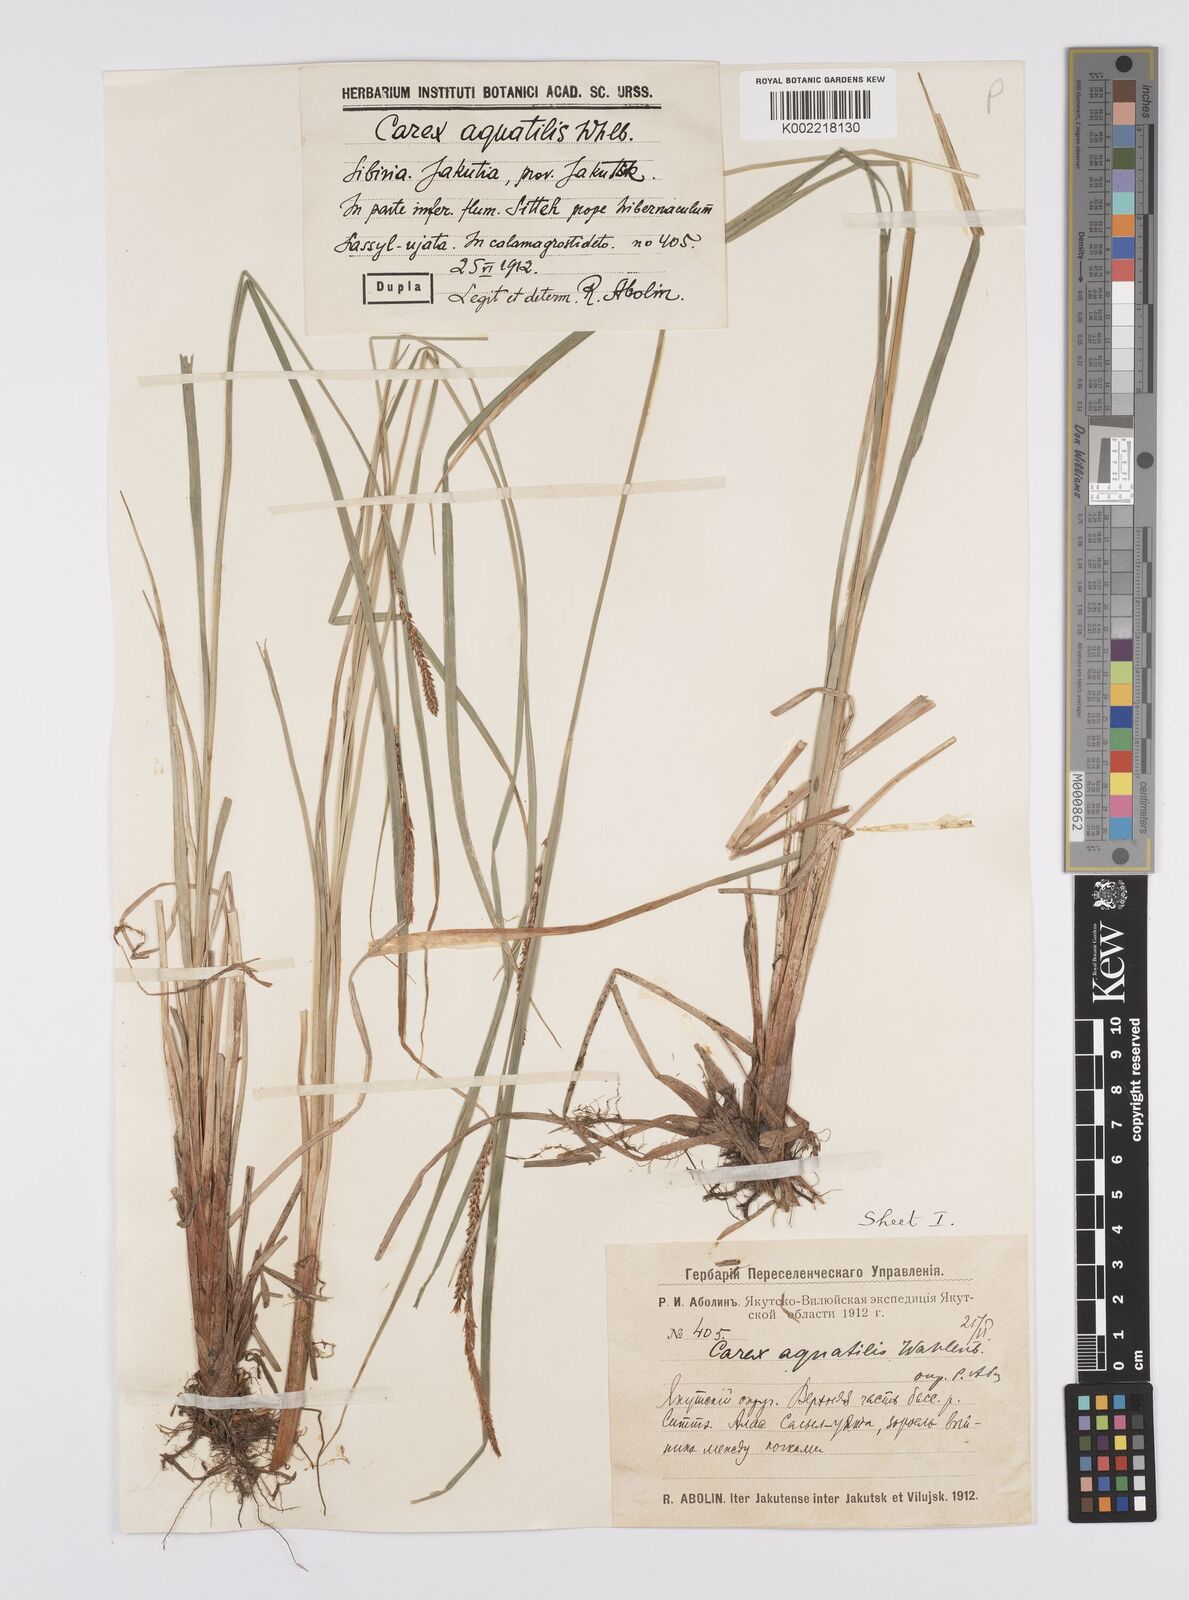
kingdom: Plantae
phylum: Tracheophyta
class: Liliopsida
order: Poales
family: Cyperaceae
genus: Carex
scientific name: Carex aquatilis
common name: Water sedge
